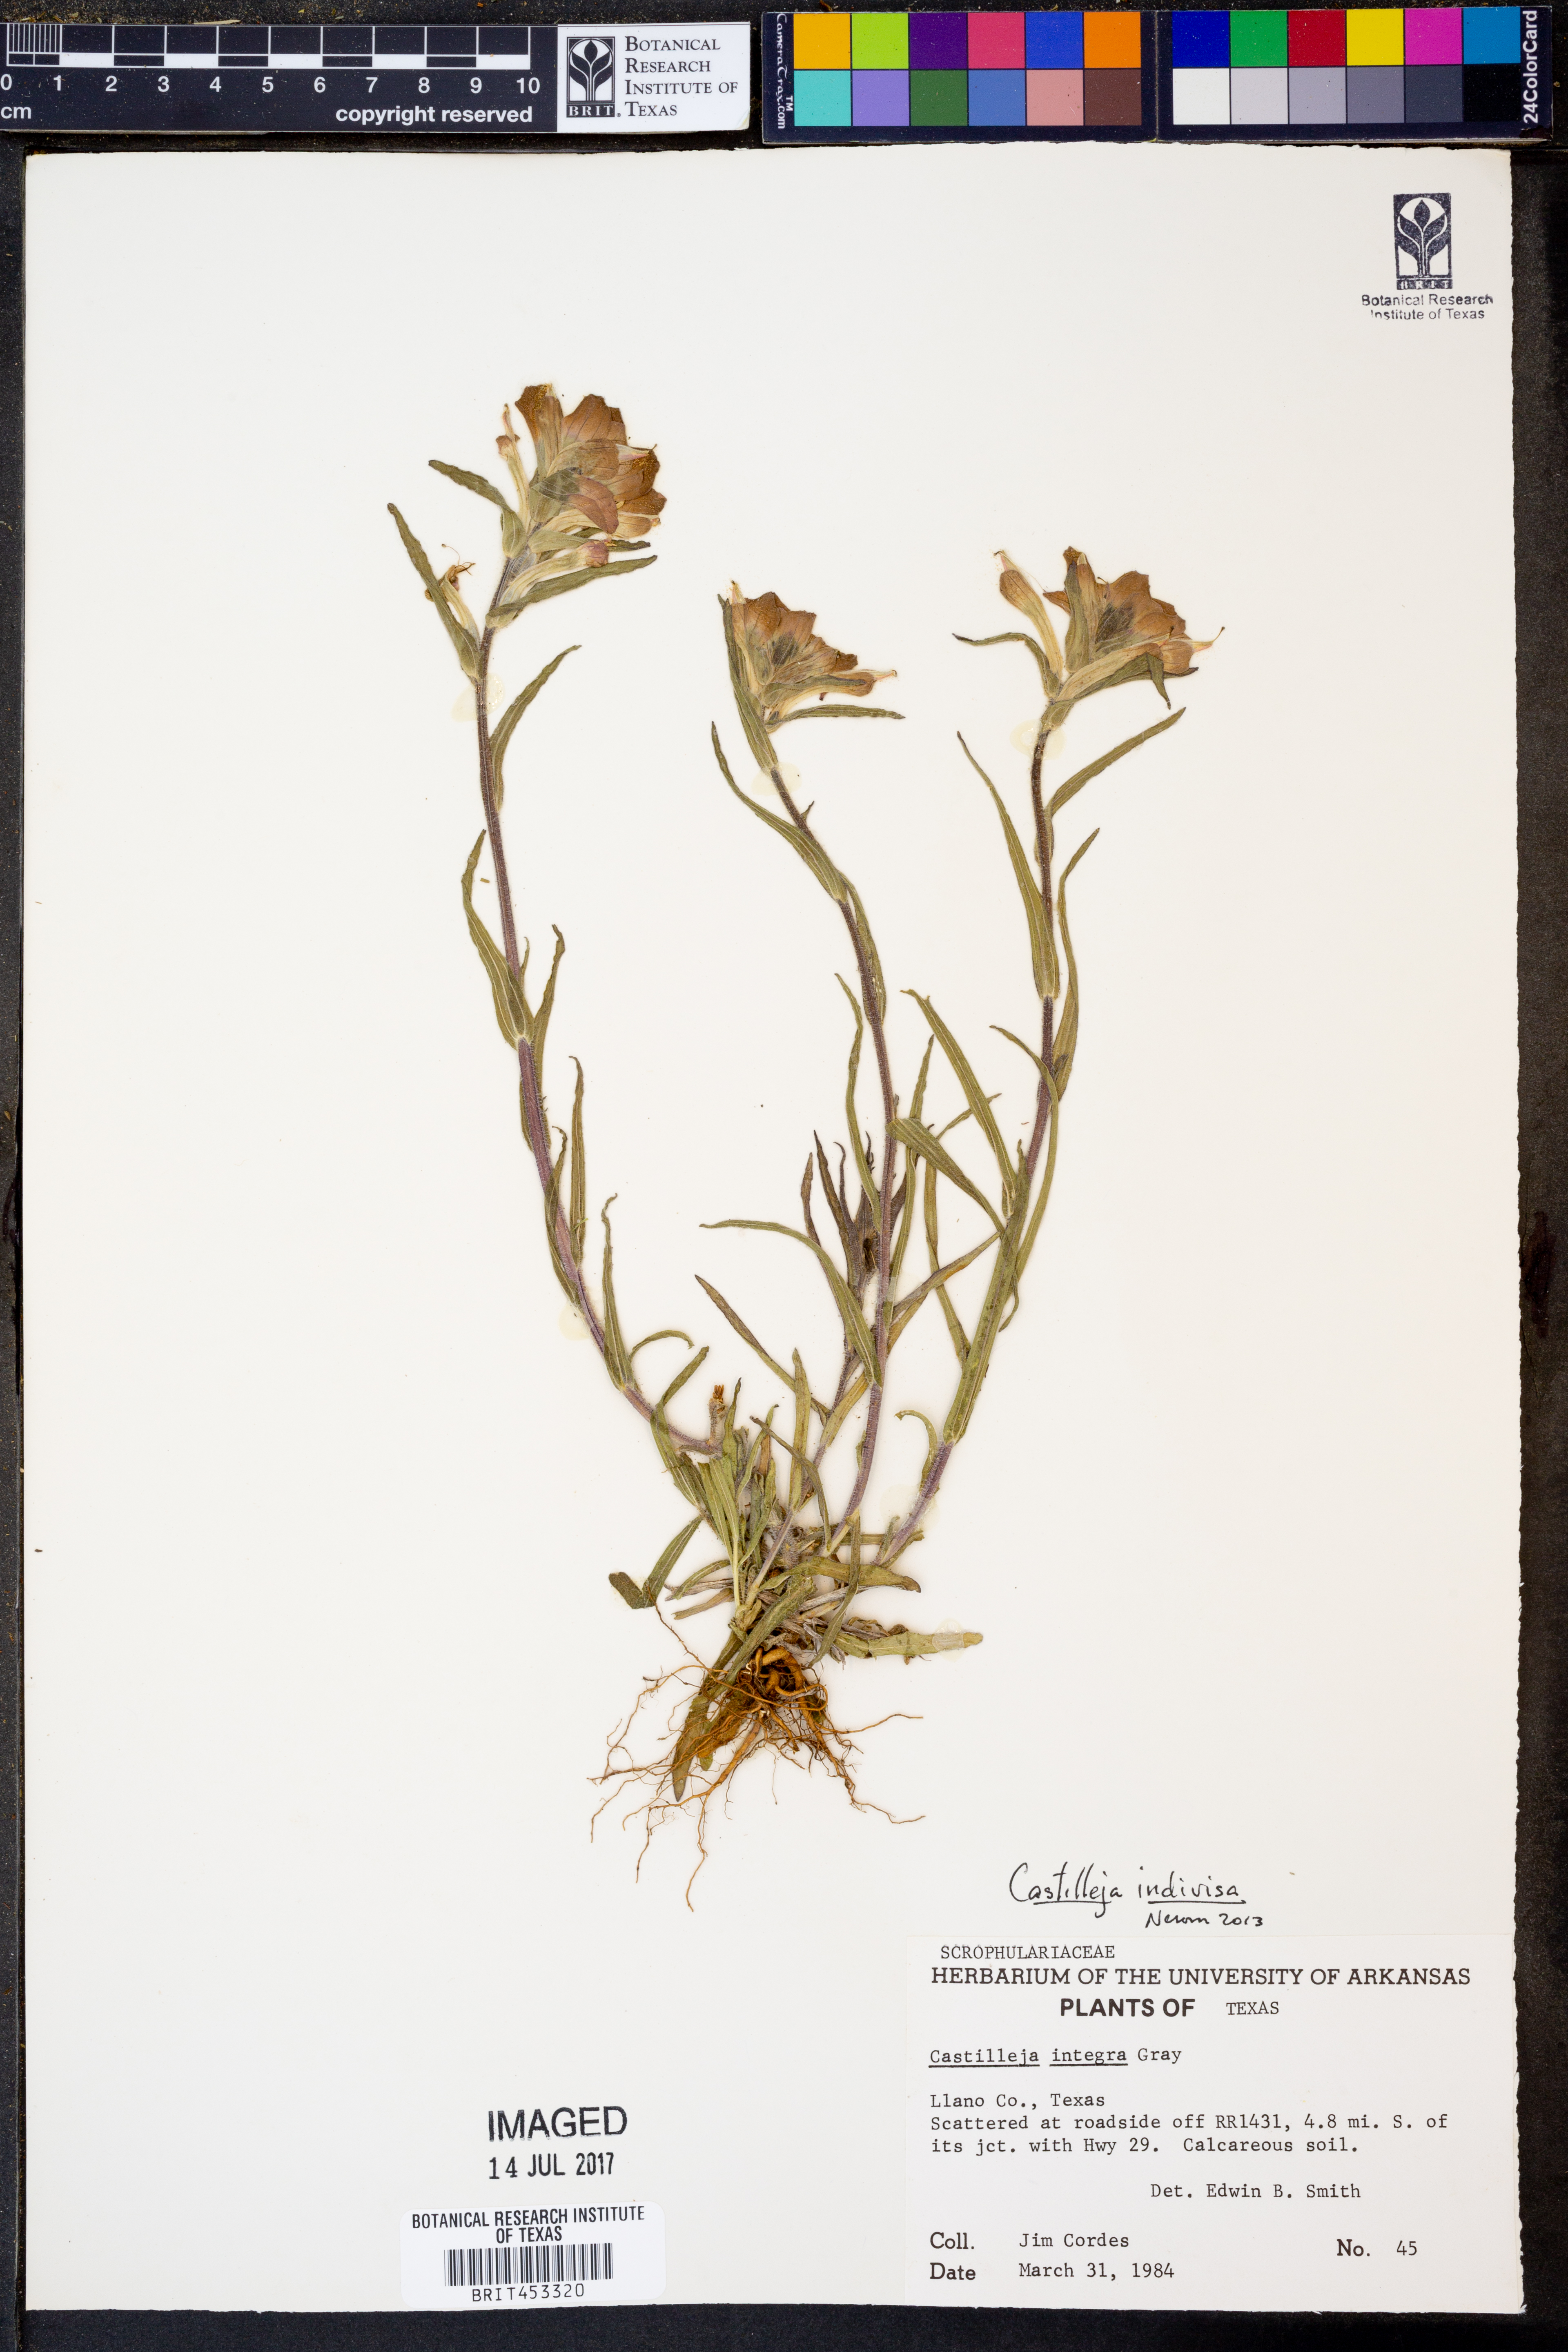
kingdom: Plantae
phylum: Tracheophyta
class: Magnoliopsida
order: Lamiales
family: Orobanchaceae
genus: Castilleja
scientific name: Castilleja integra
